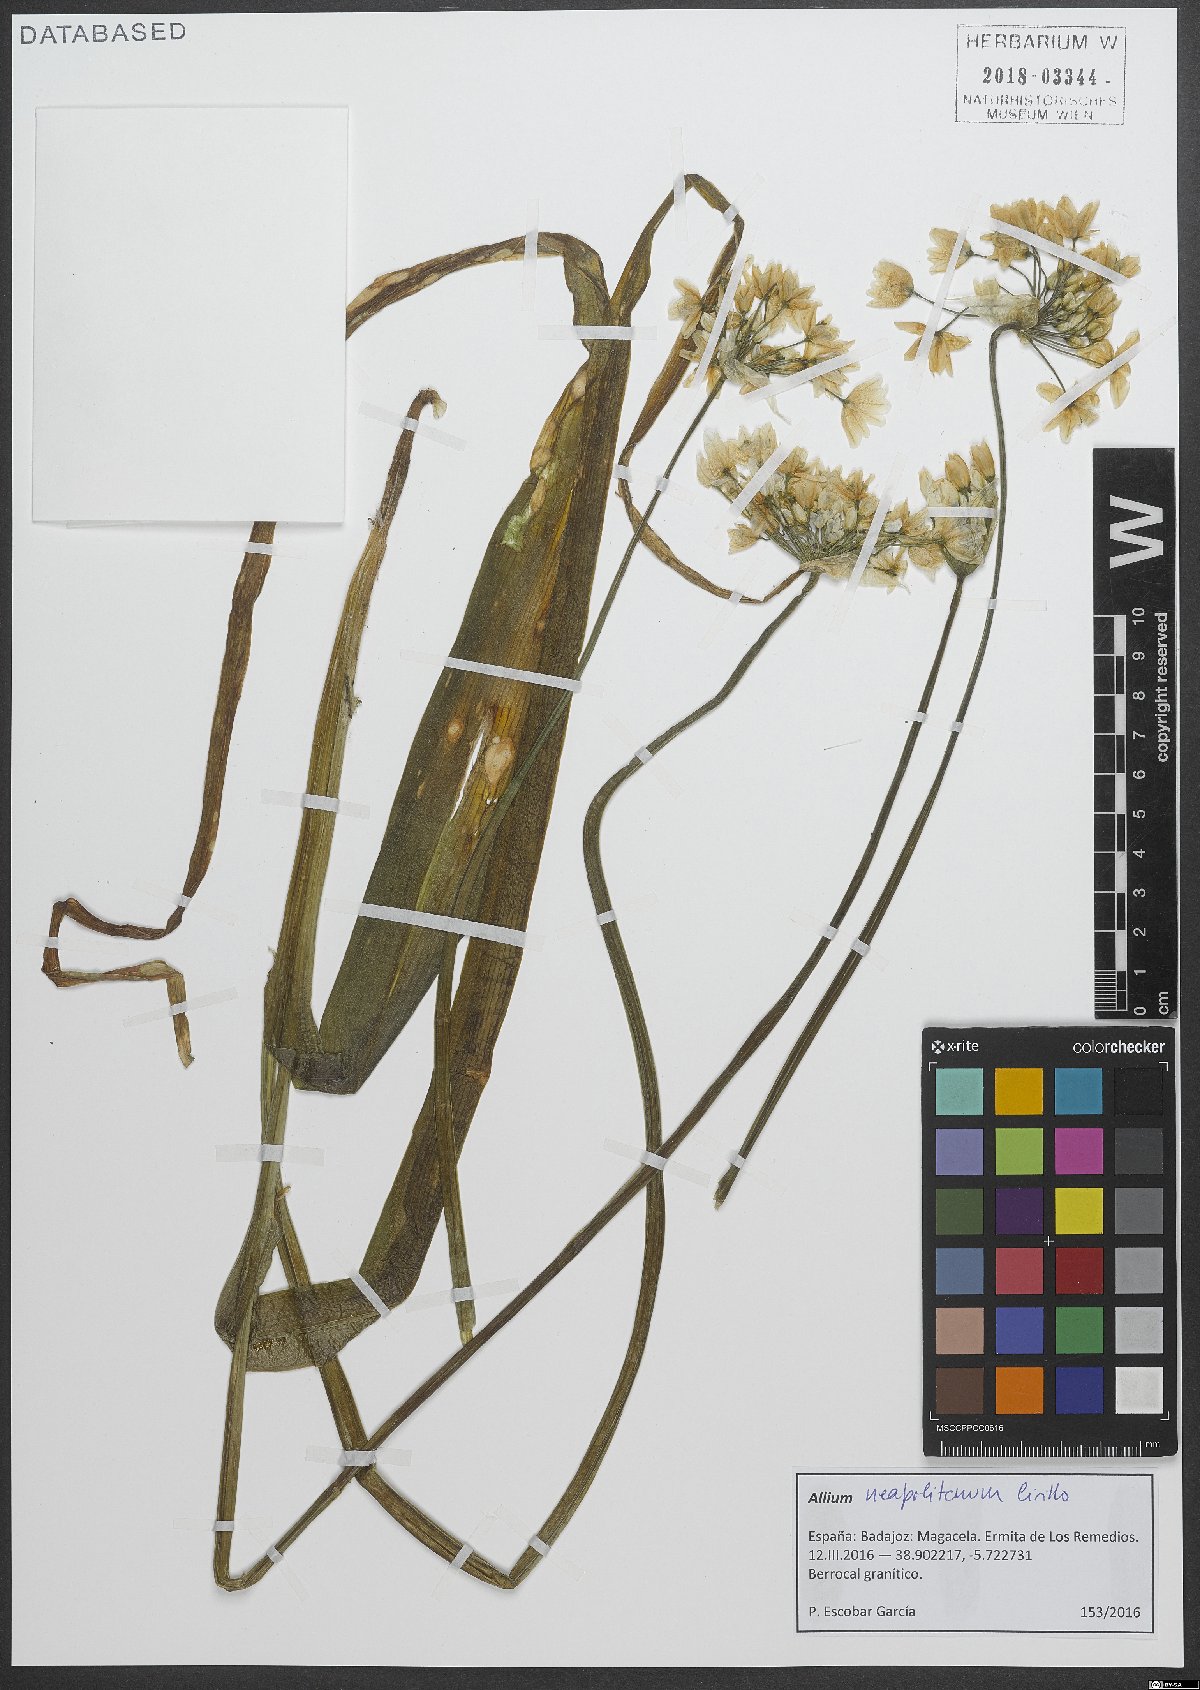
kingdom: Plantae
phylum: Tracheophyta
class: Liliopsida
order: Asparagales
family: Amaryllidaceae
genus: Allium
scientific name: Allium neapolitanum
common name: Neapolitan garlic
